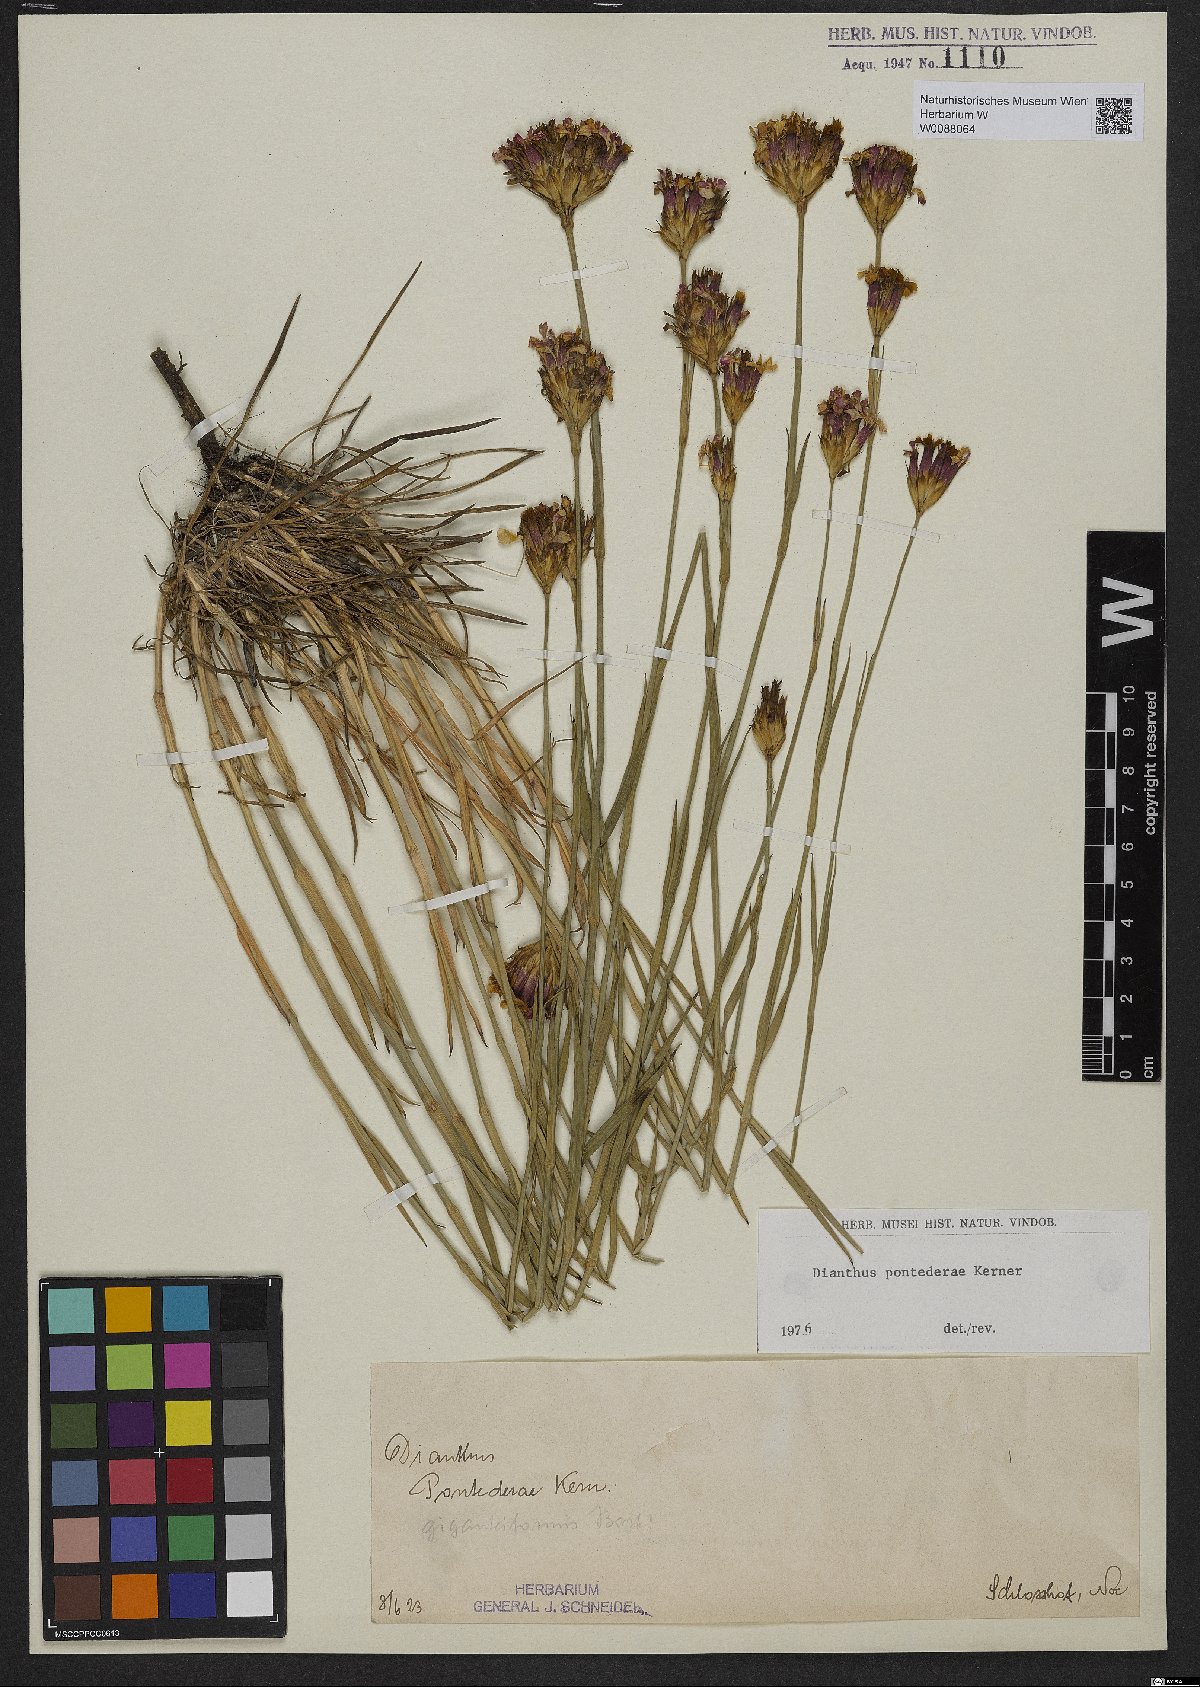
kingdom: Plantae
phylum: Tracheophyta
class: Magnoliopsida
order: Caryophyllales
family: Caryophyllaceae
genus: Dianthus
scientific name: Dianthus pontederae
